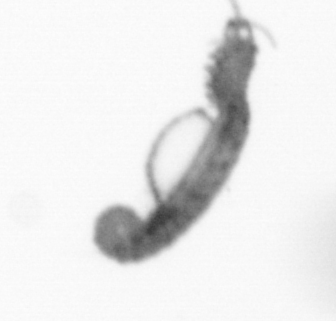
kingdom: Animalia
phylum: Annelida
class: Polychaeta
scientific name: Polychaeta
